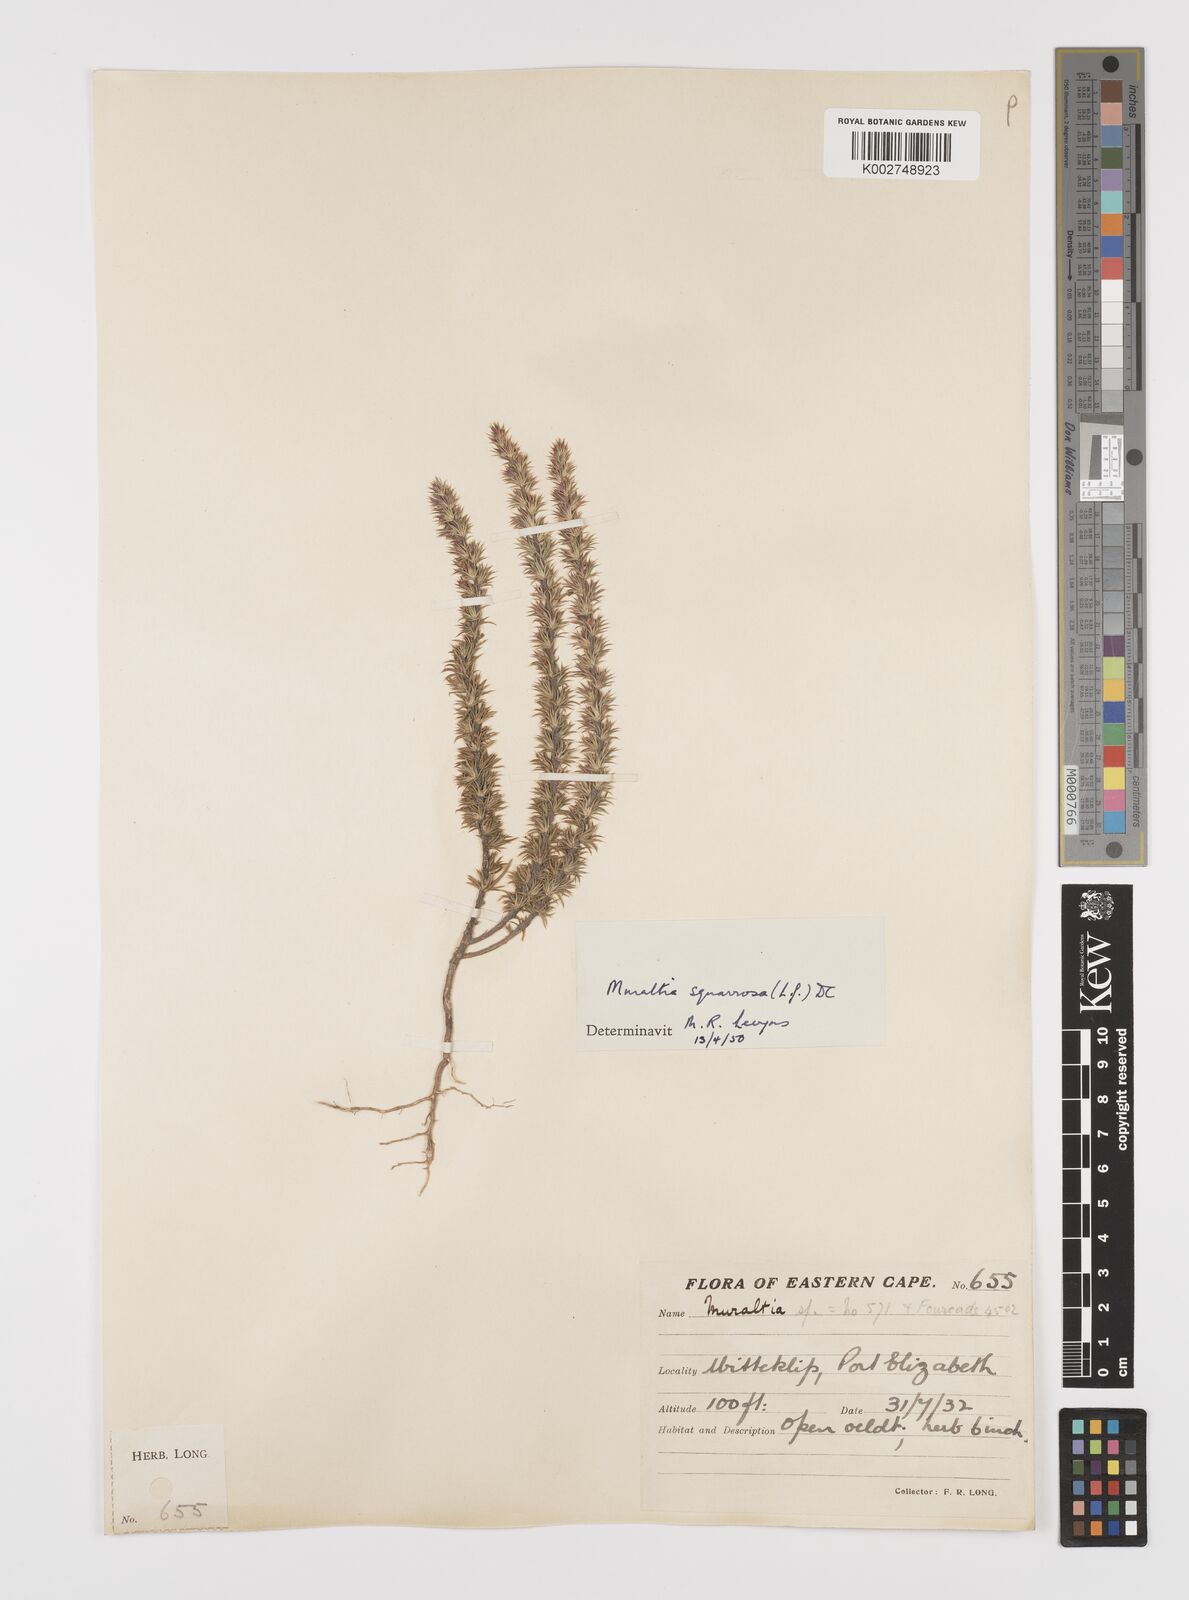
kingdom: Plantae
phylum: Tracheophyta
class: Magnoliopsida
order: Fabales
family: Polygalaceae
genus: Muraltia
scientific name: Muraltia squarrosa
